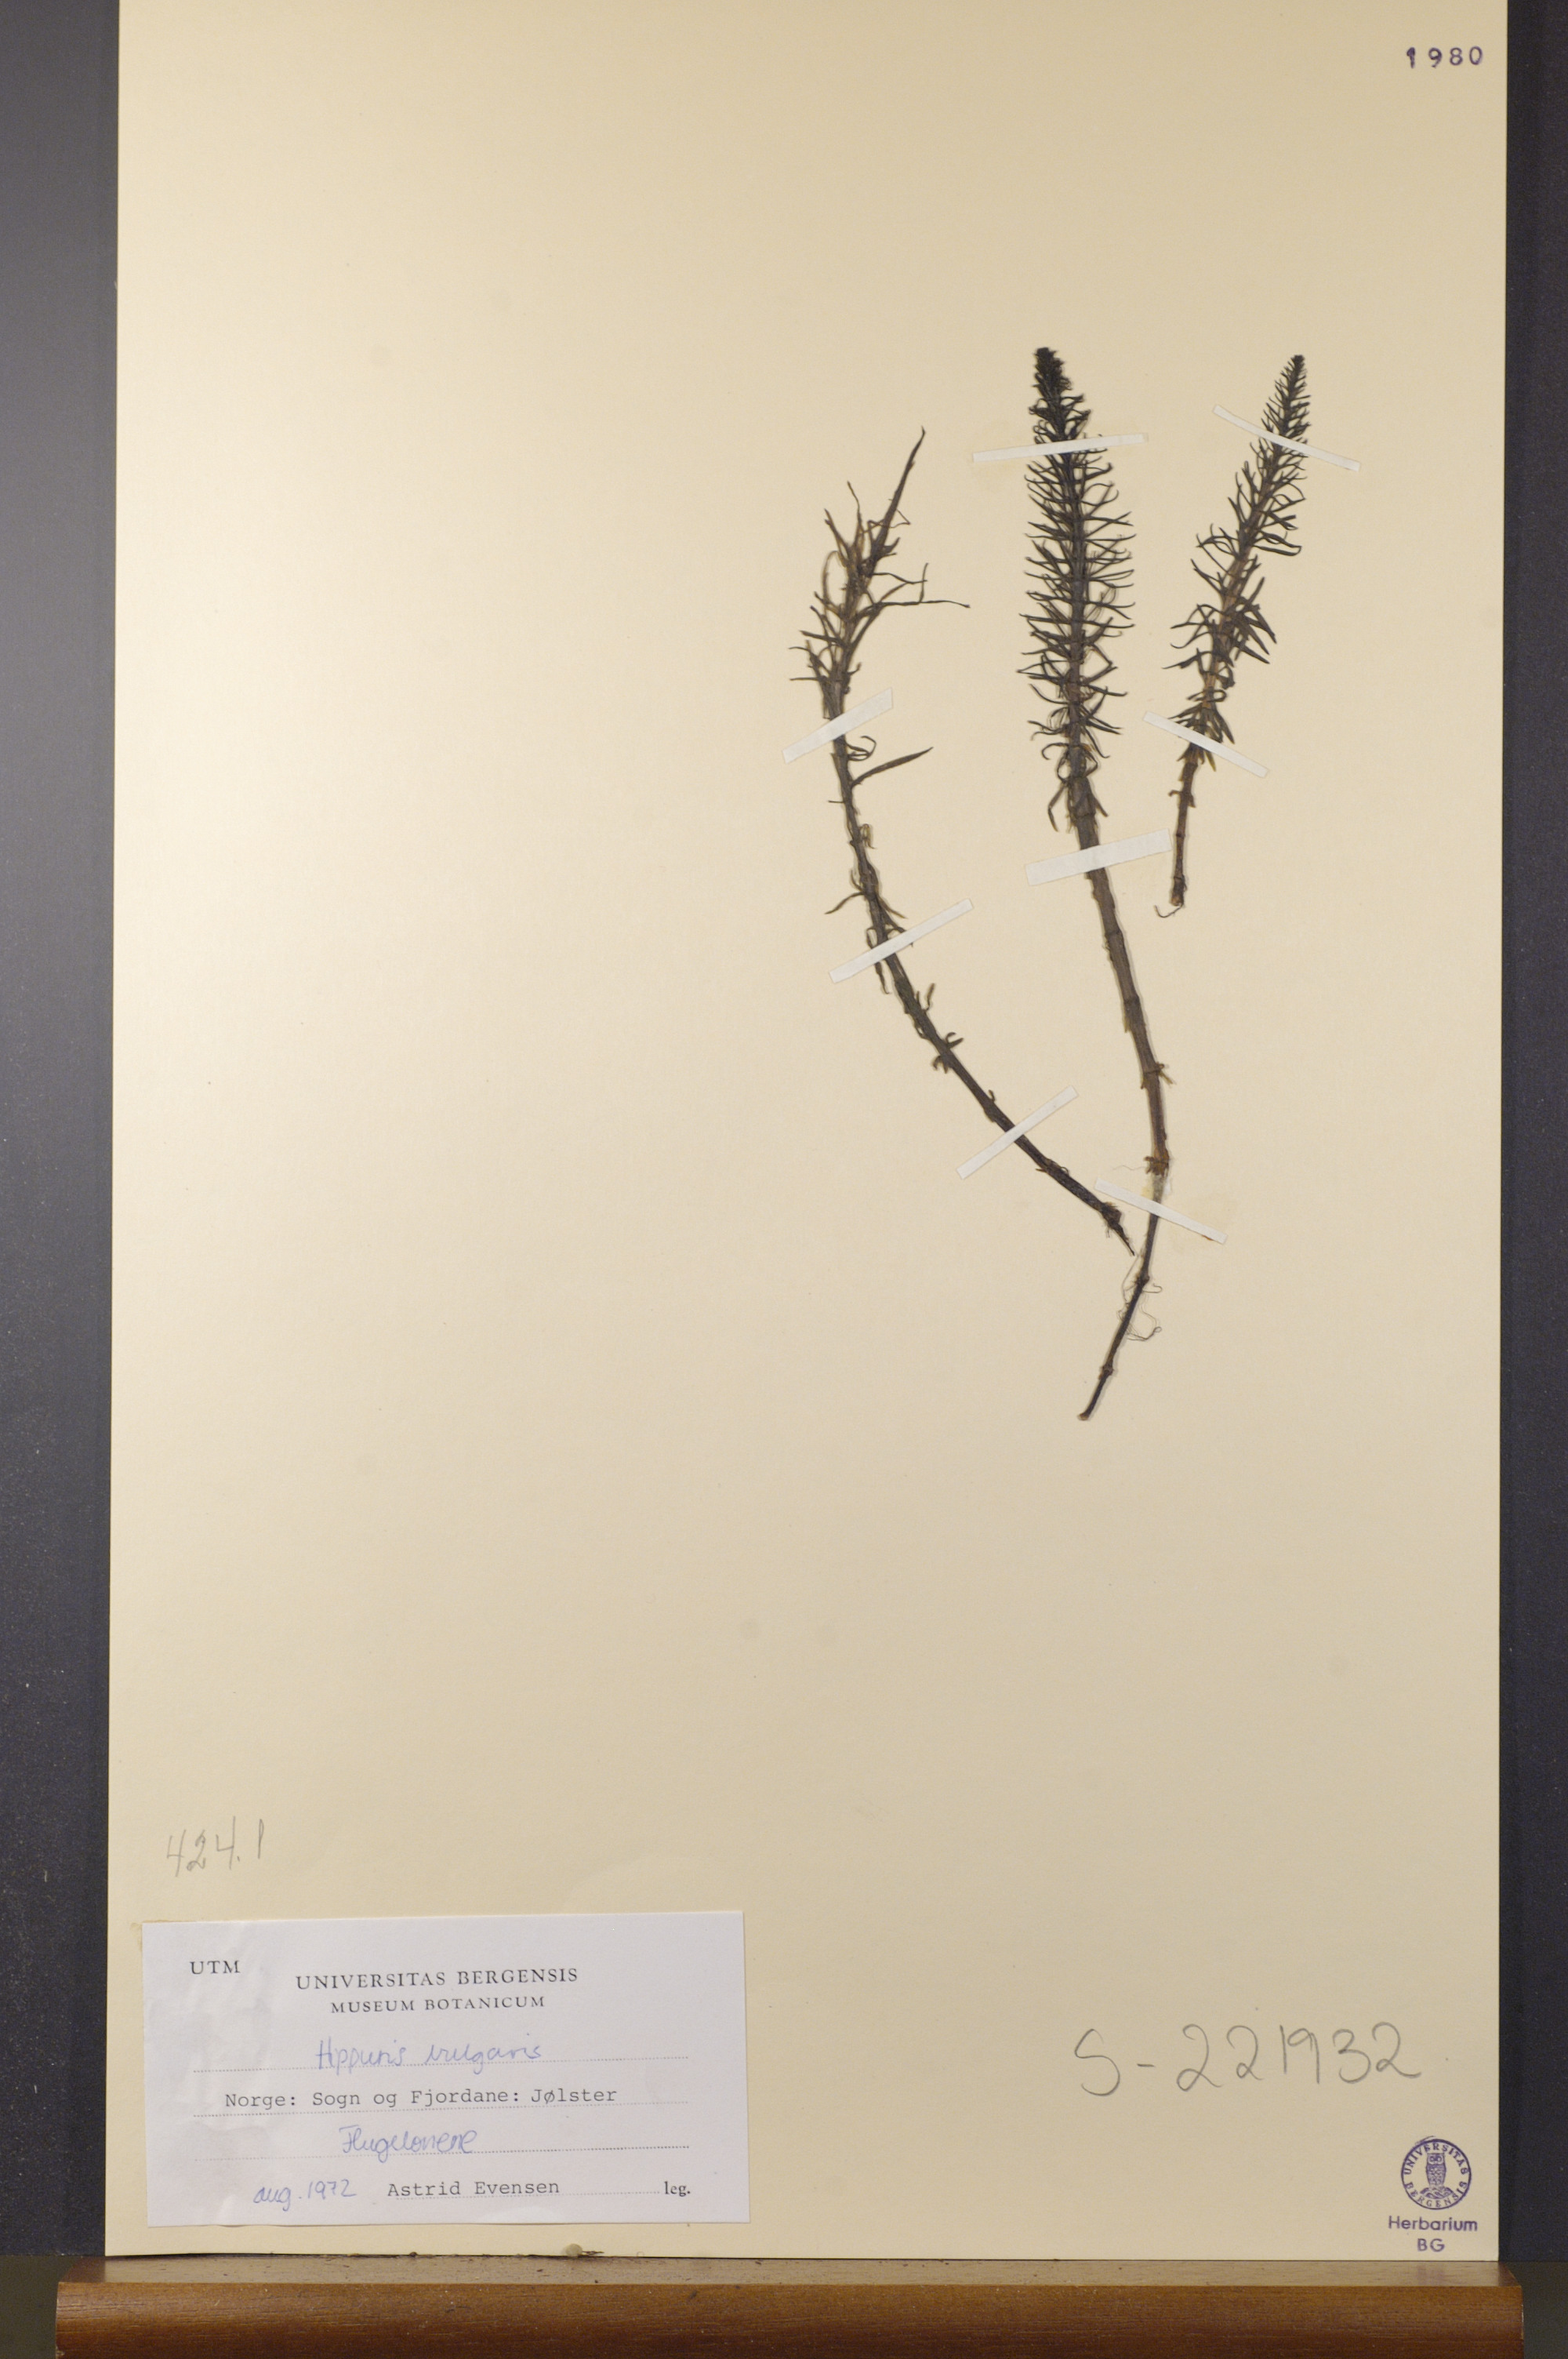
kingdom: Plantae
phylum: Tracheophyta
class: Magnoliopsida
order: Lamiales
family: Plantaginaceae
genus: Hippuris
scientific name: Hippuris vulgaris
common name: Mare's-tail
